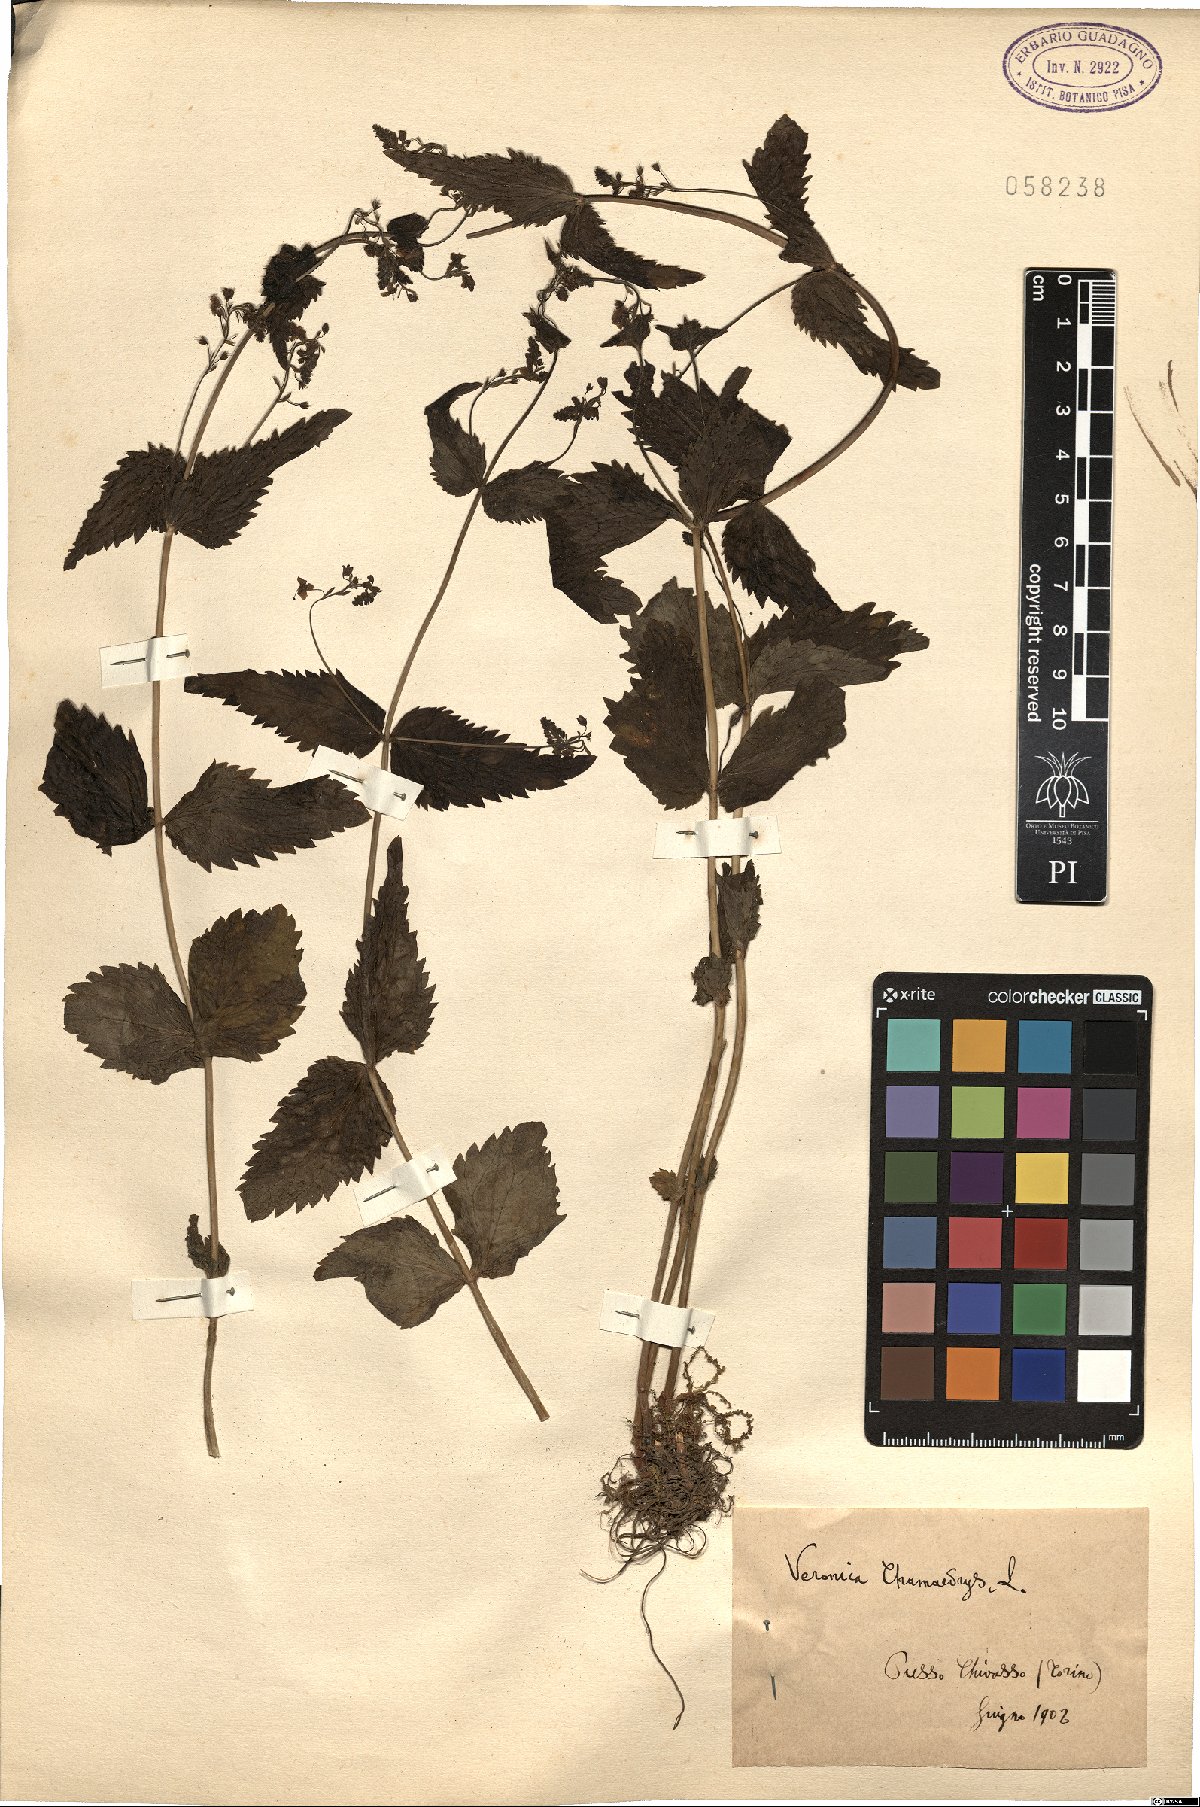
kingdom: Plantae
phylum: Tracheophyta
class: Magnoliopsida
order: Lamiales
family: Plantaginaceae
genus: Veronica
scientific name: Veronica chamaedrys
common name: Germander speedwell
